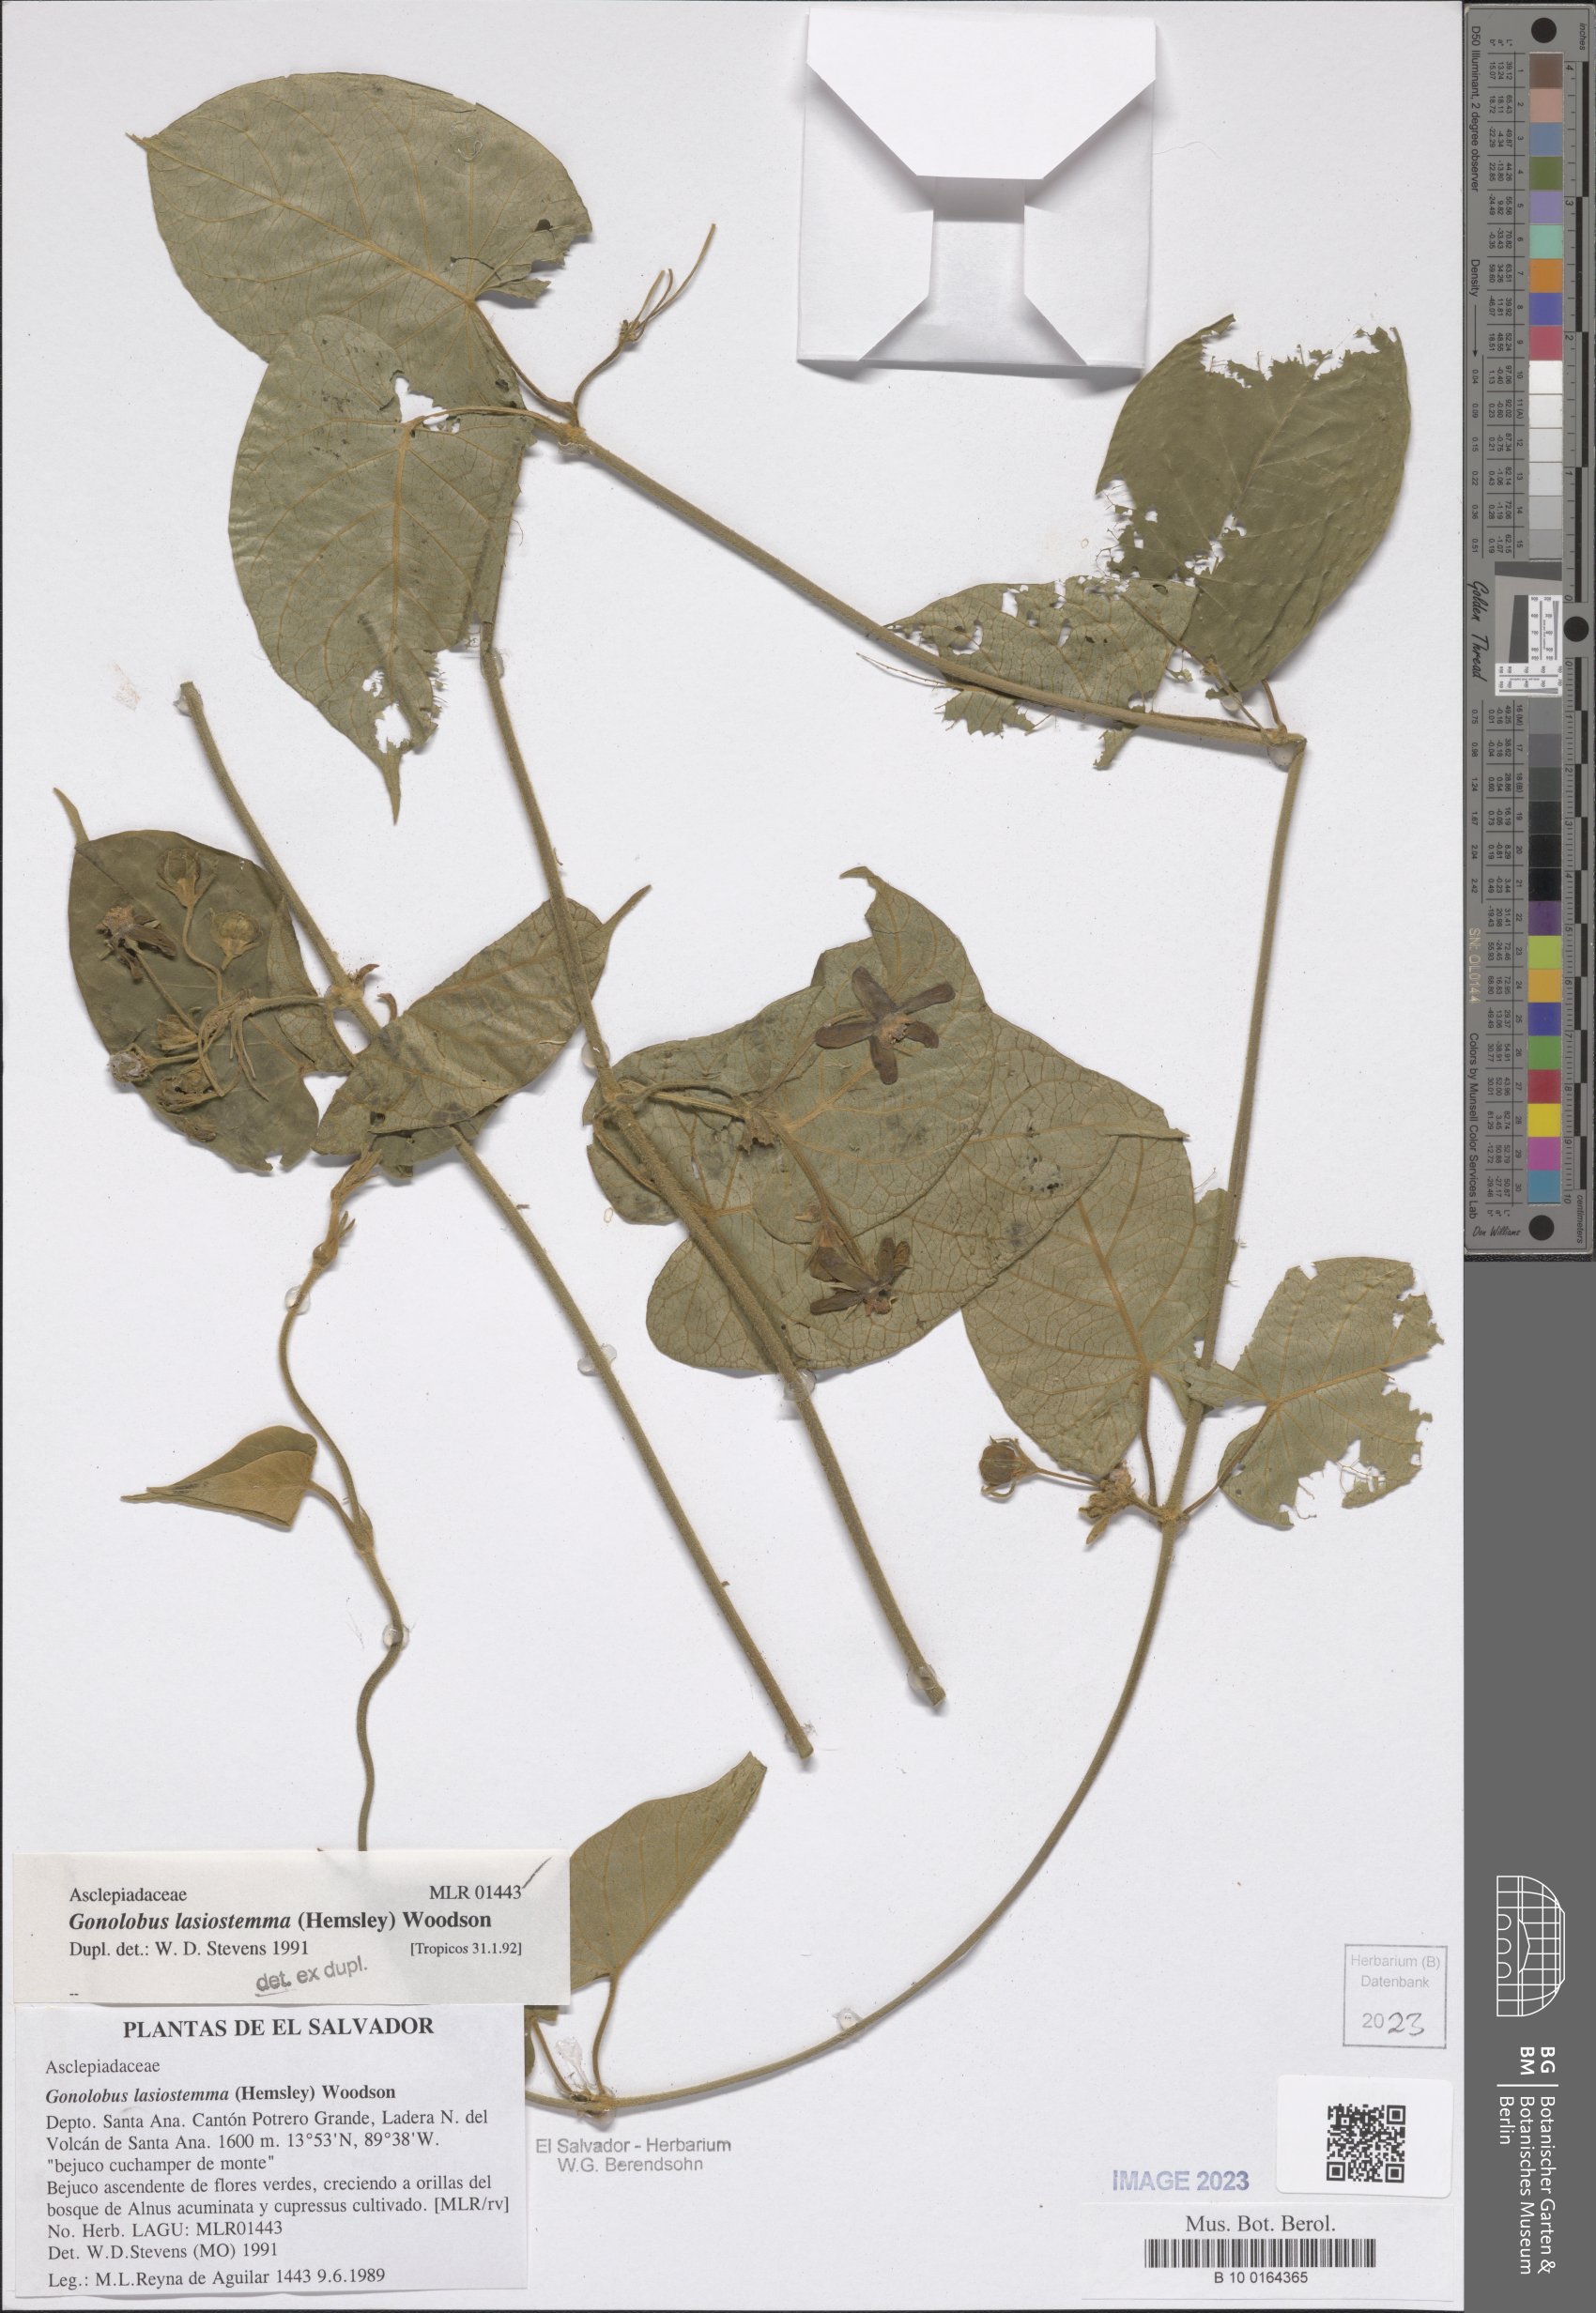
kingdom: Plantae
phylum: Tracheophyta
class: Magnoliopsida
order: Gentianales
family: Apocynaceae
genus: Gonolobus
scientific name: Gonolobus lasiostemma
